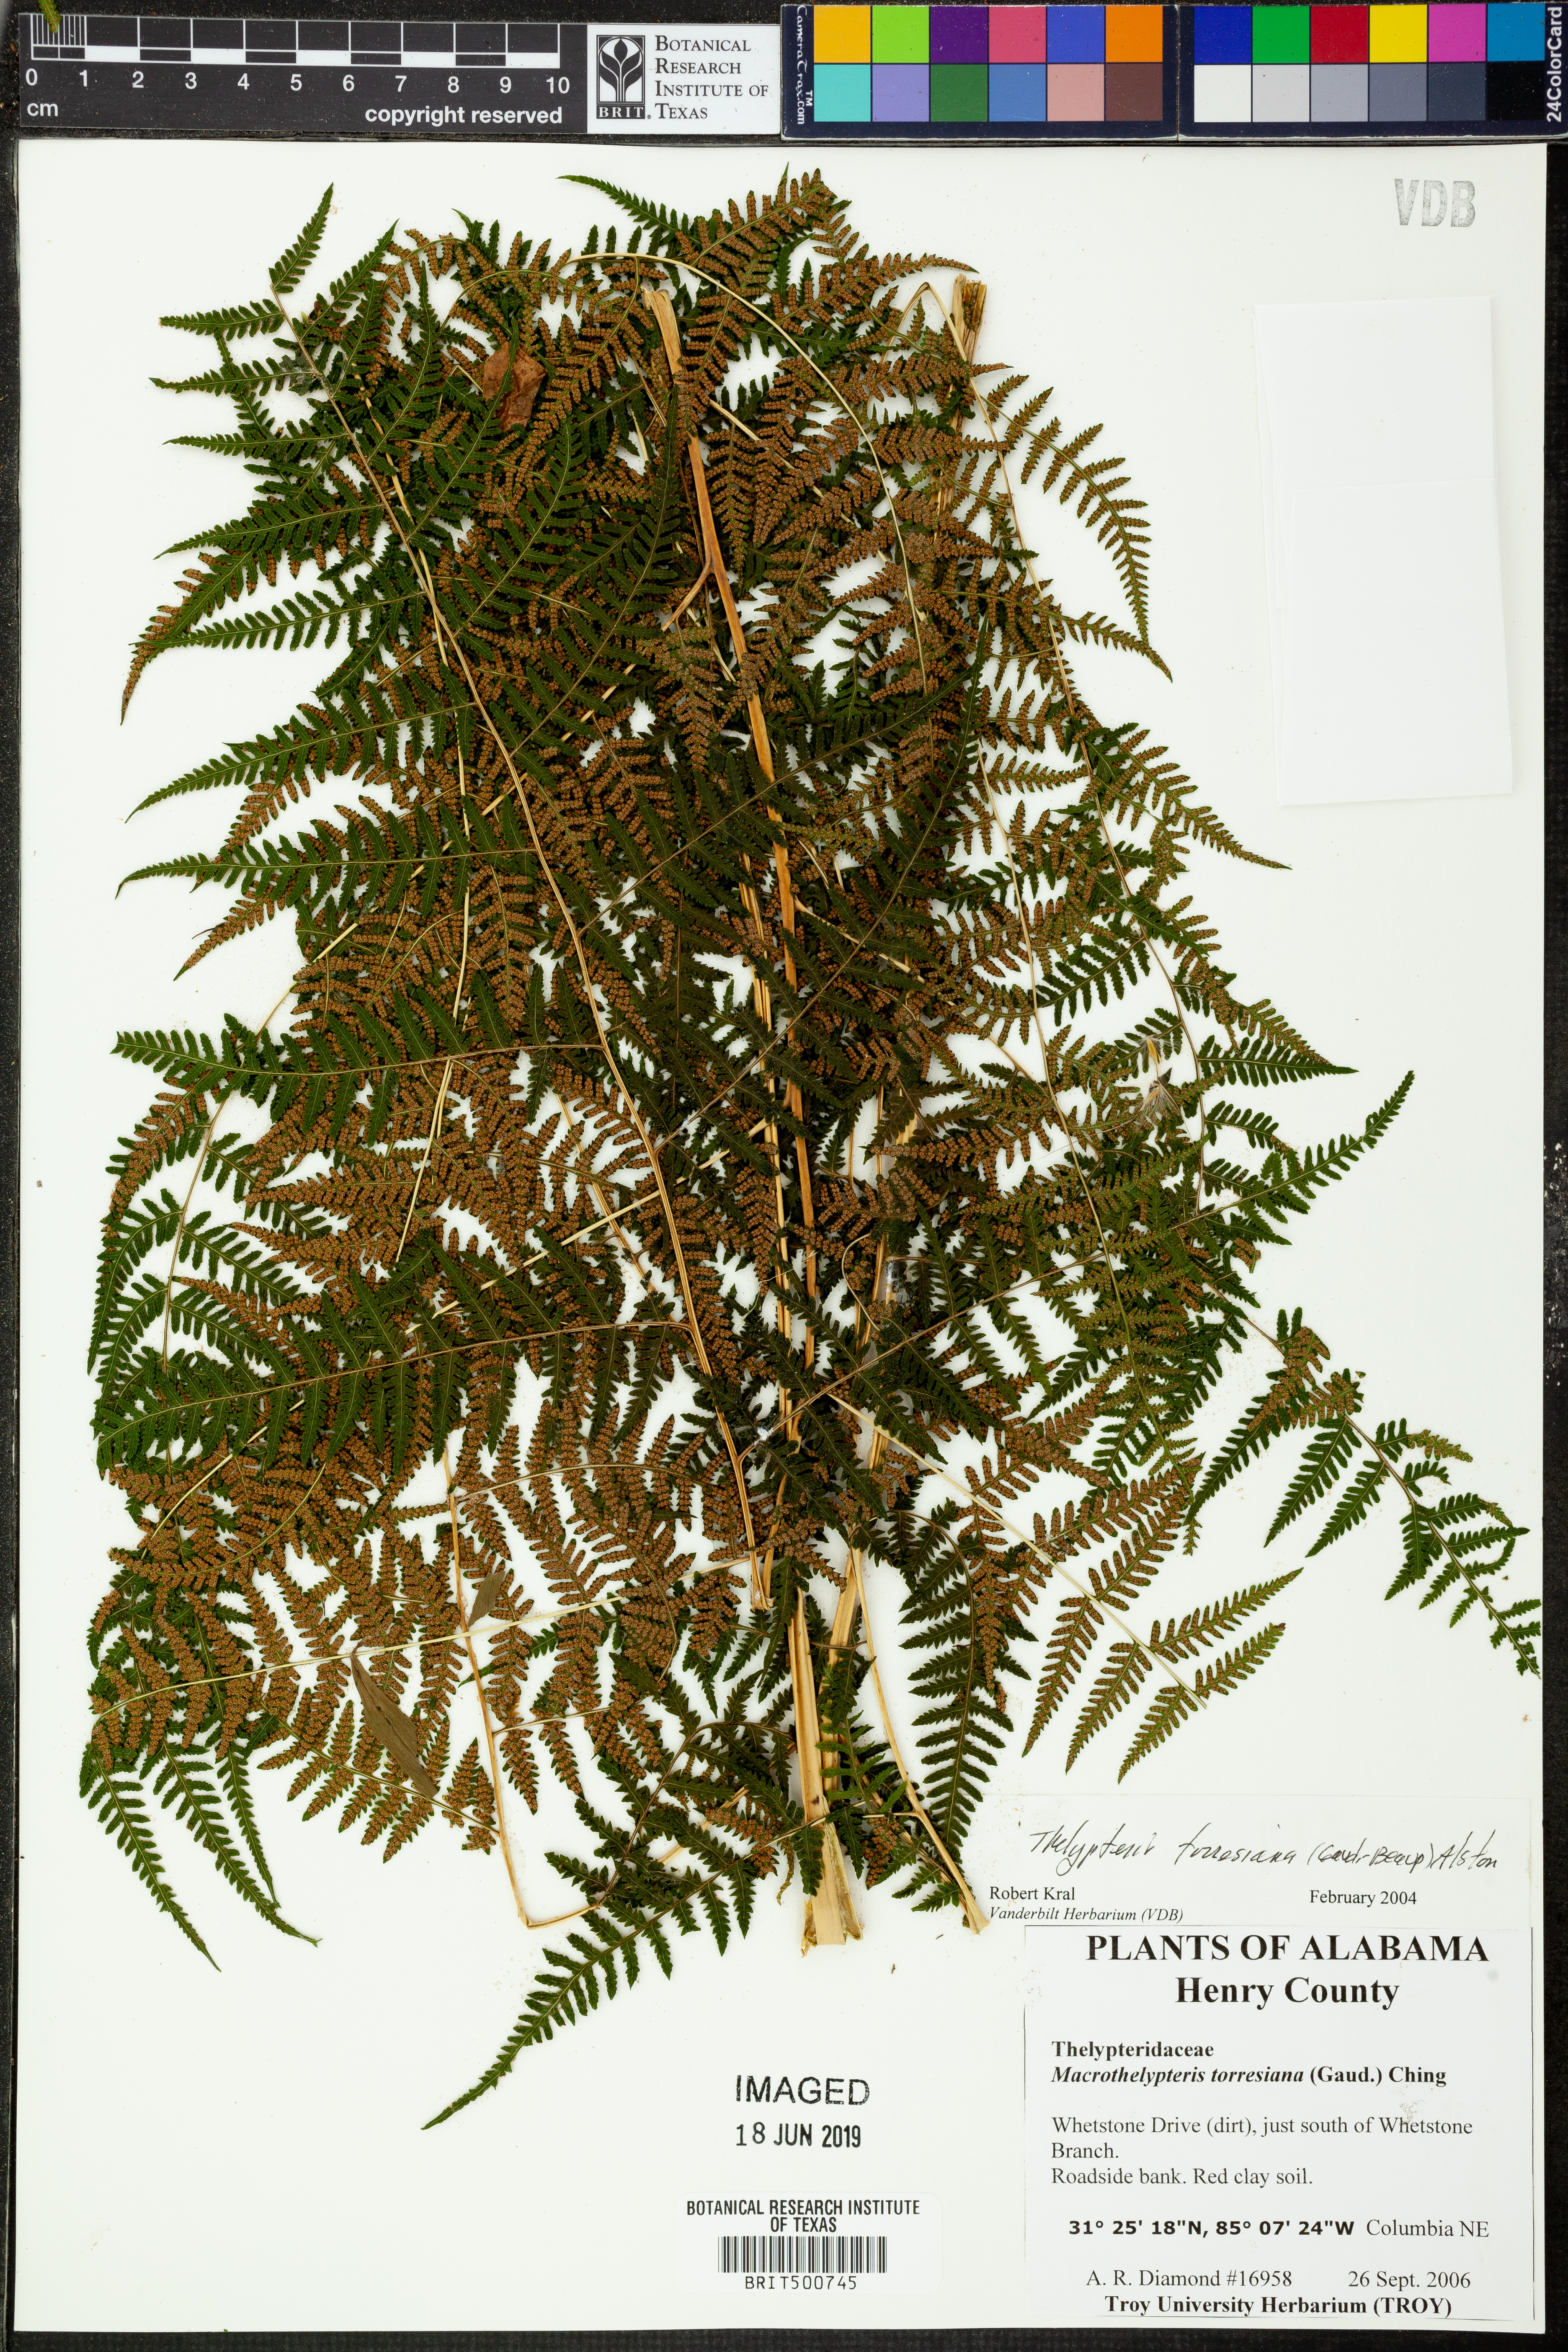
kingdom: Plantae
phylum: Tracheophyta
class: Polypodiopsida
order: Polypodiales
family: Thelypteridaceae
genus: Macrothelypteris
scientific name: Macrothelypteris torresiana
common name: Swordfern
